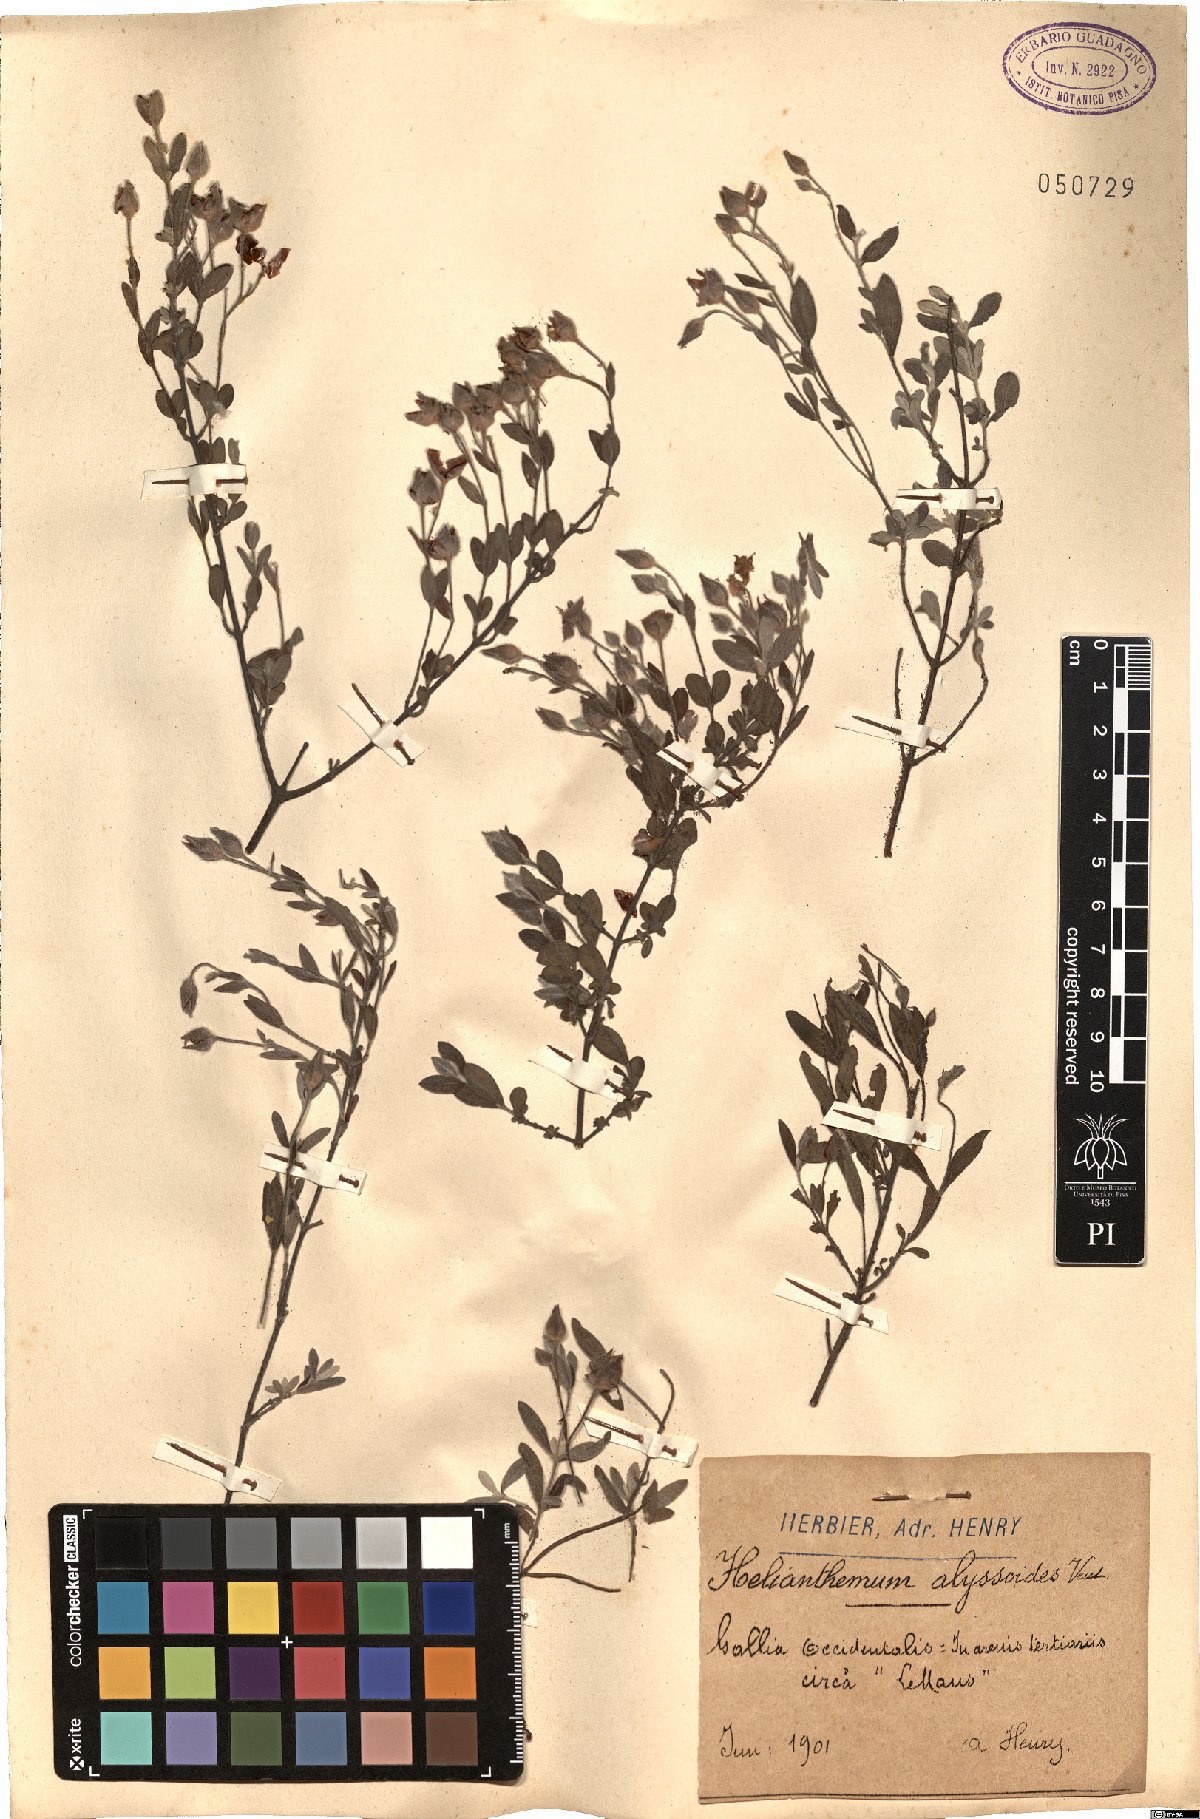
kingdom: Plantae
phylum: Tracheophyta
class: Magnoliopsida
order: Malvales
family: Cistaceae
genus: Halimium
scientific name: Halimium lasianthum
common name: Lisbon false sun-rose
